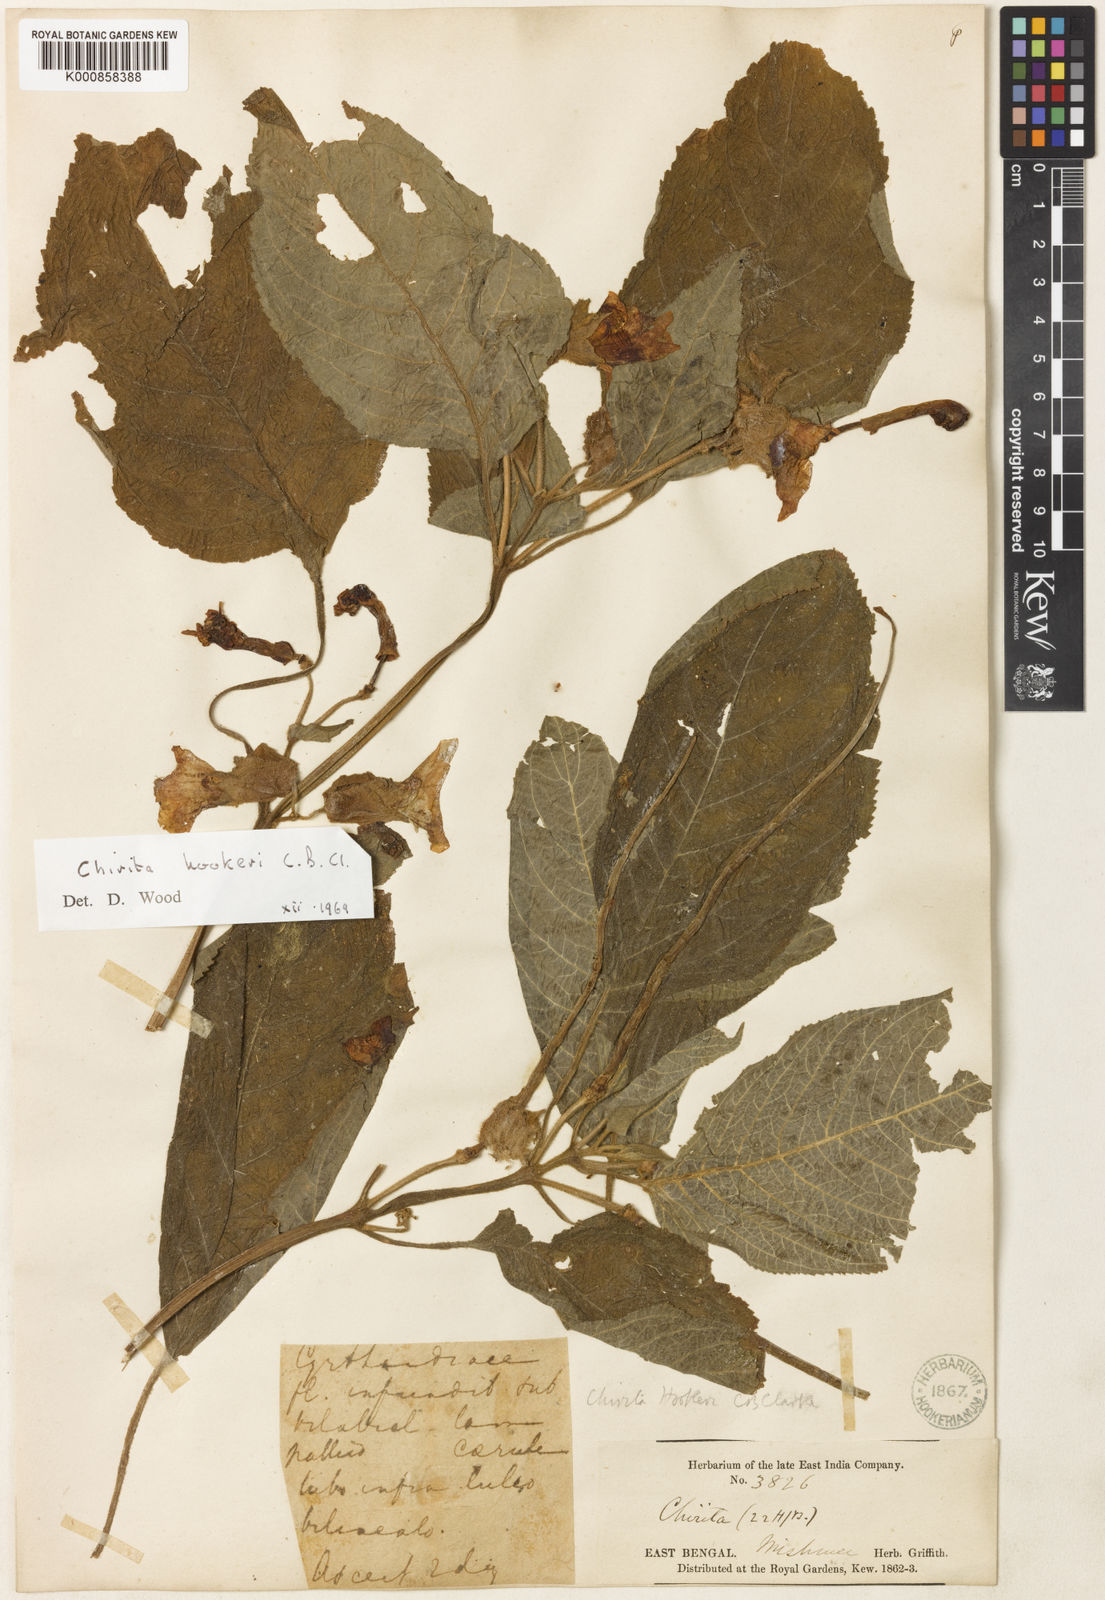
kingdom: Plantae
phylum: Tracheophyta
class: Magnoliopsida
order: Lamiales
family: Gesneriaceae
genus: Henckelia
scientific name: Henckelia hookeri
